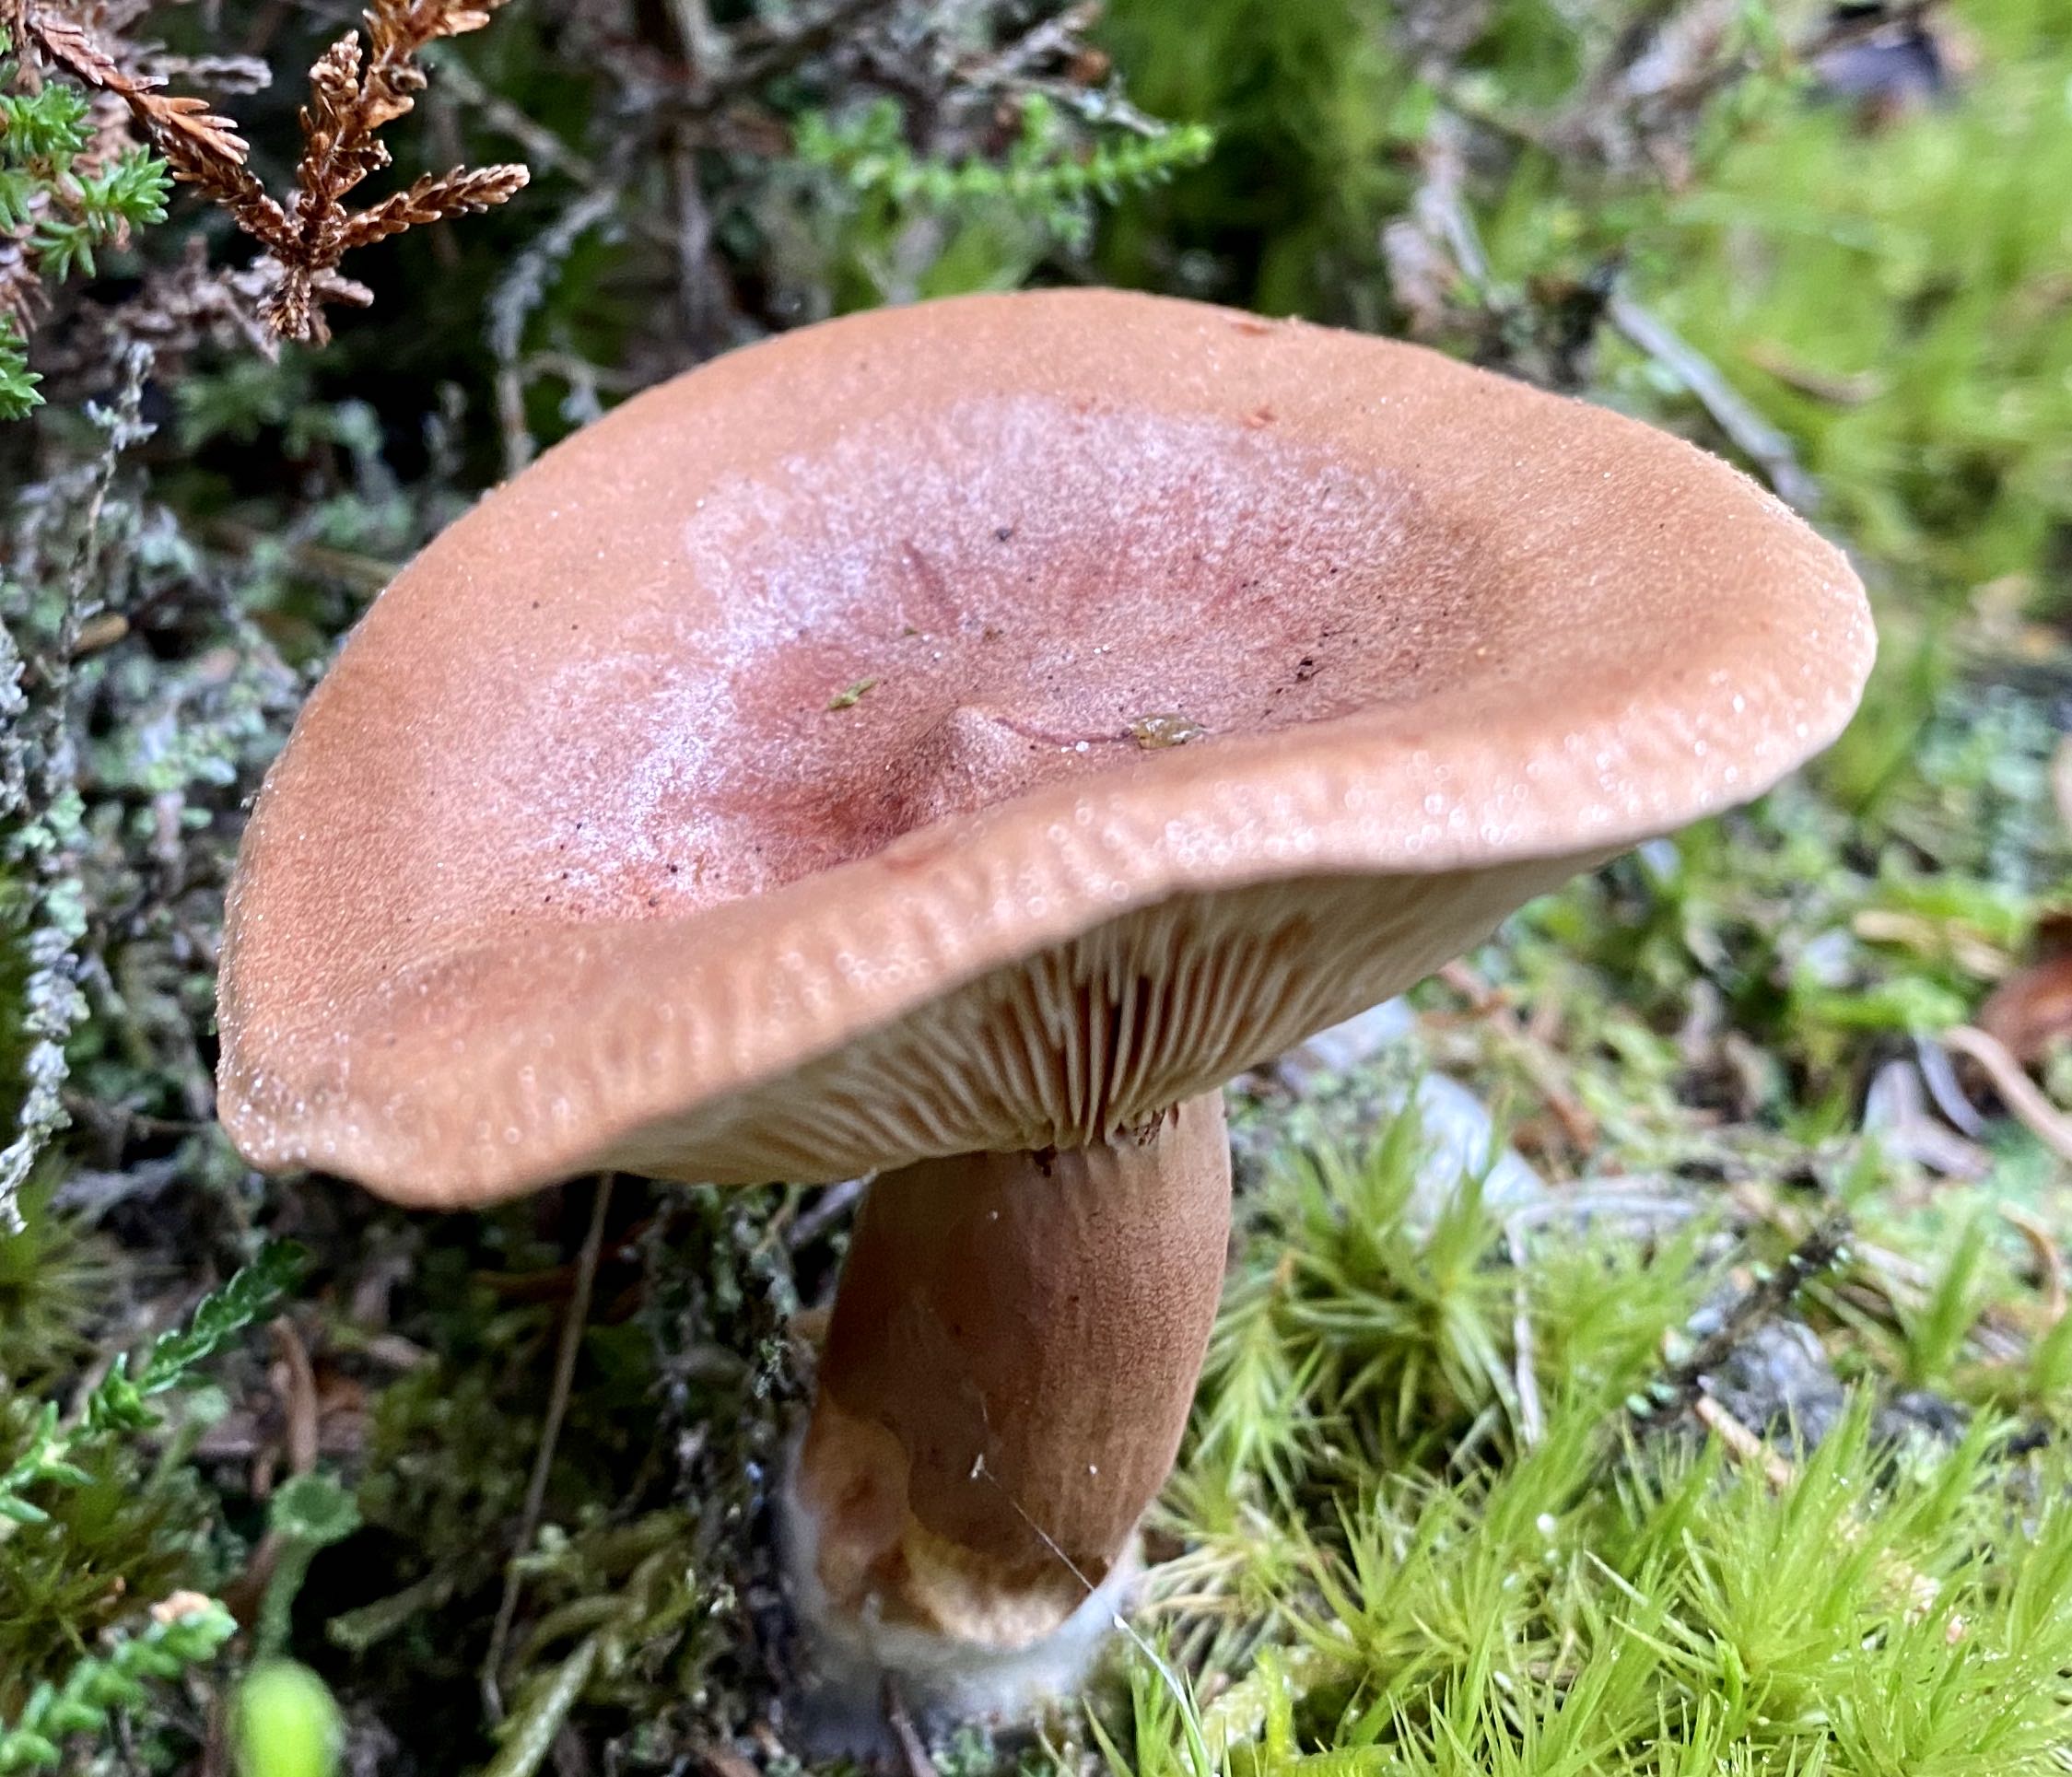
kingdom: Fungi
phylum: Basidiomycota
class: Agaricomycetes
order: Russulales
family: Russulaceae
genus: Lactarius
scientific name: Lactarius rufus
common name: rødbrun mælkehat
